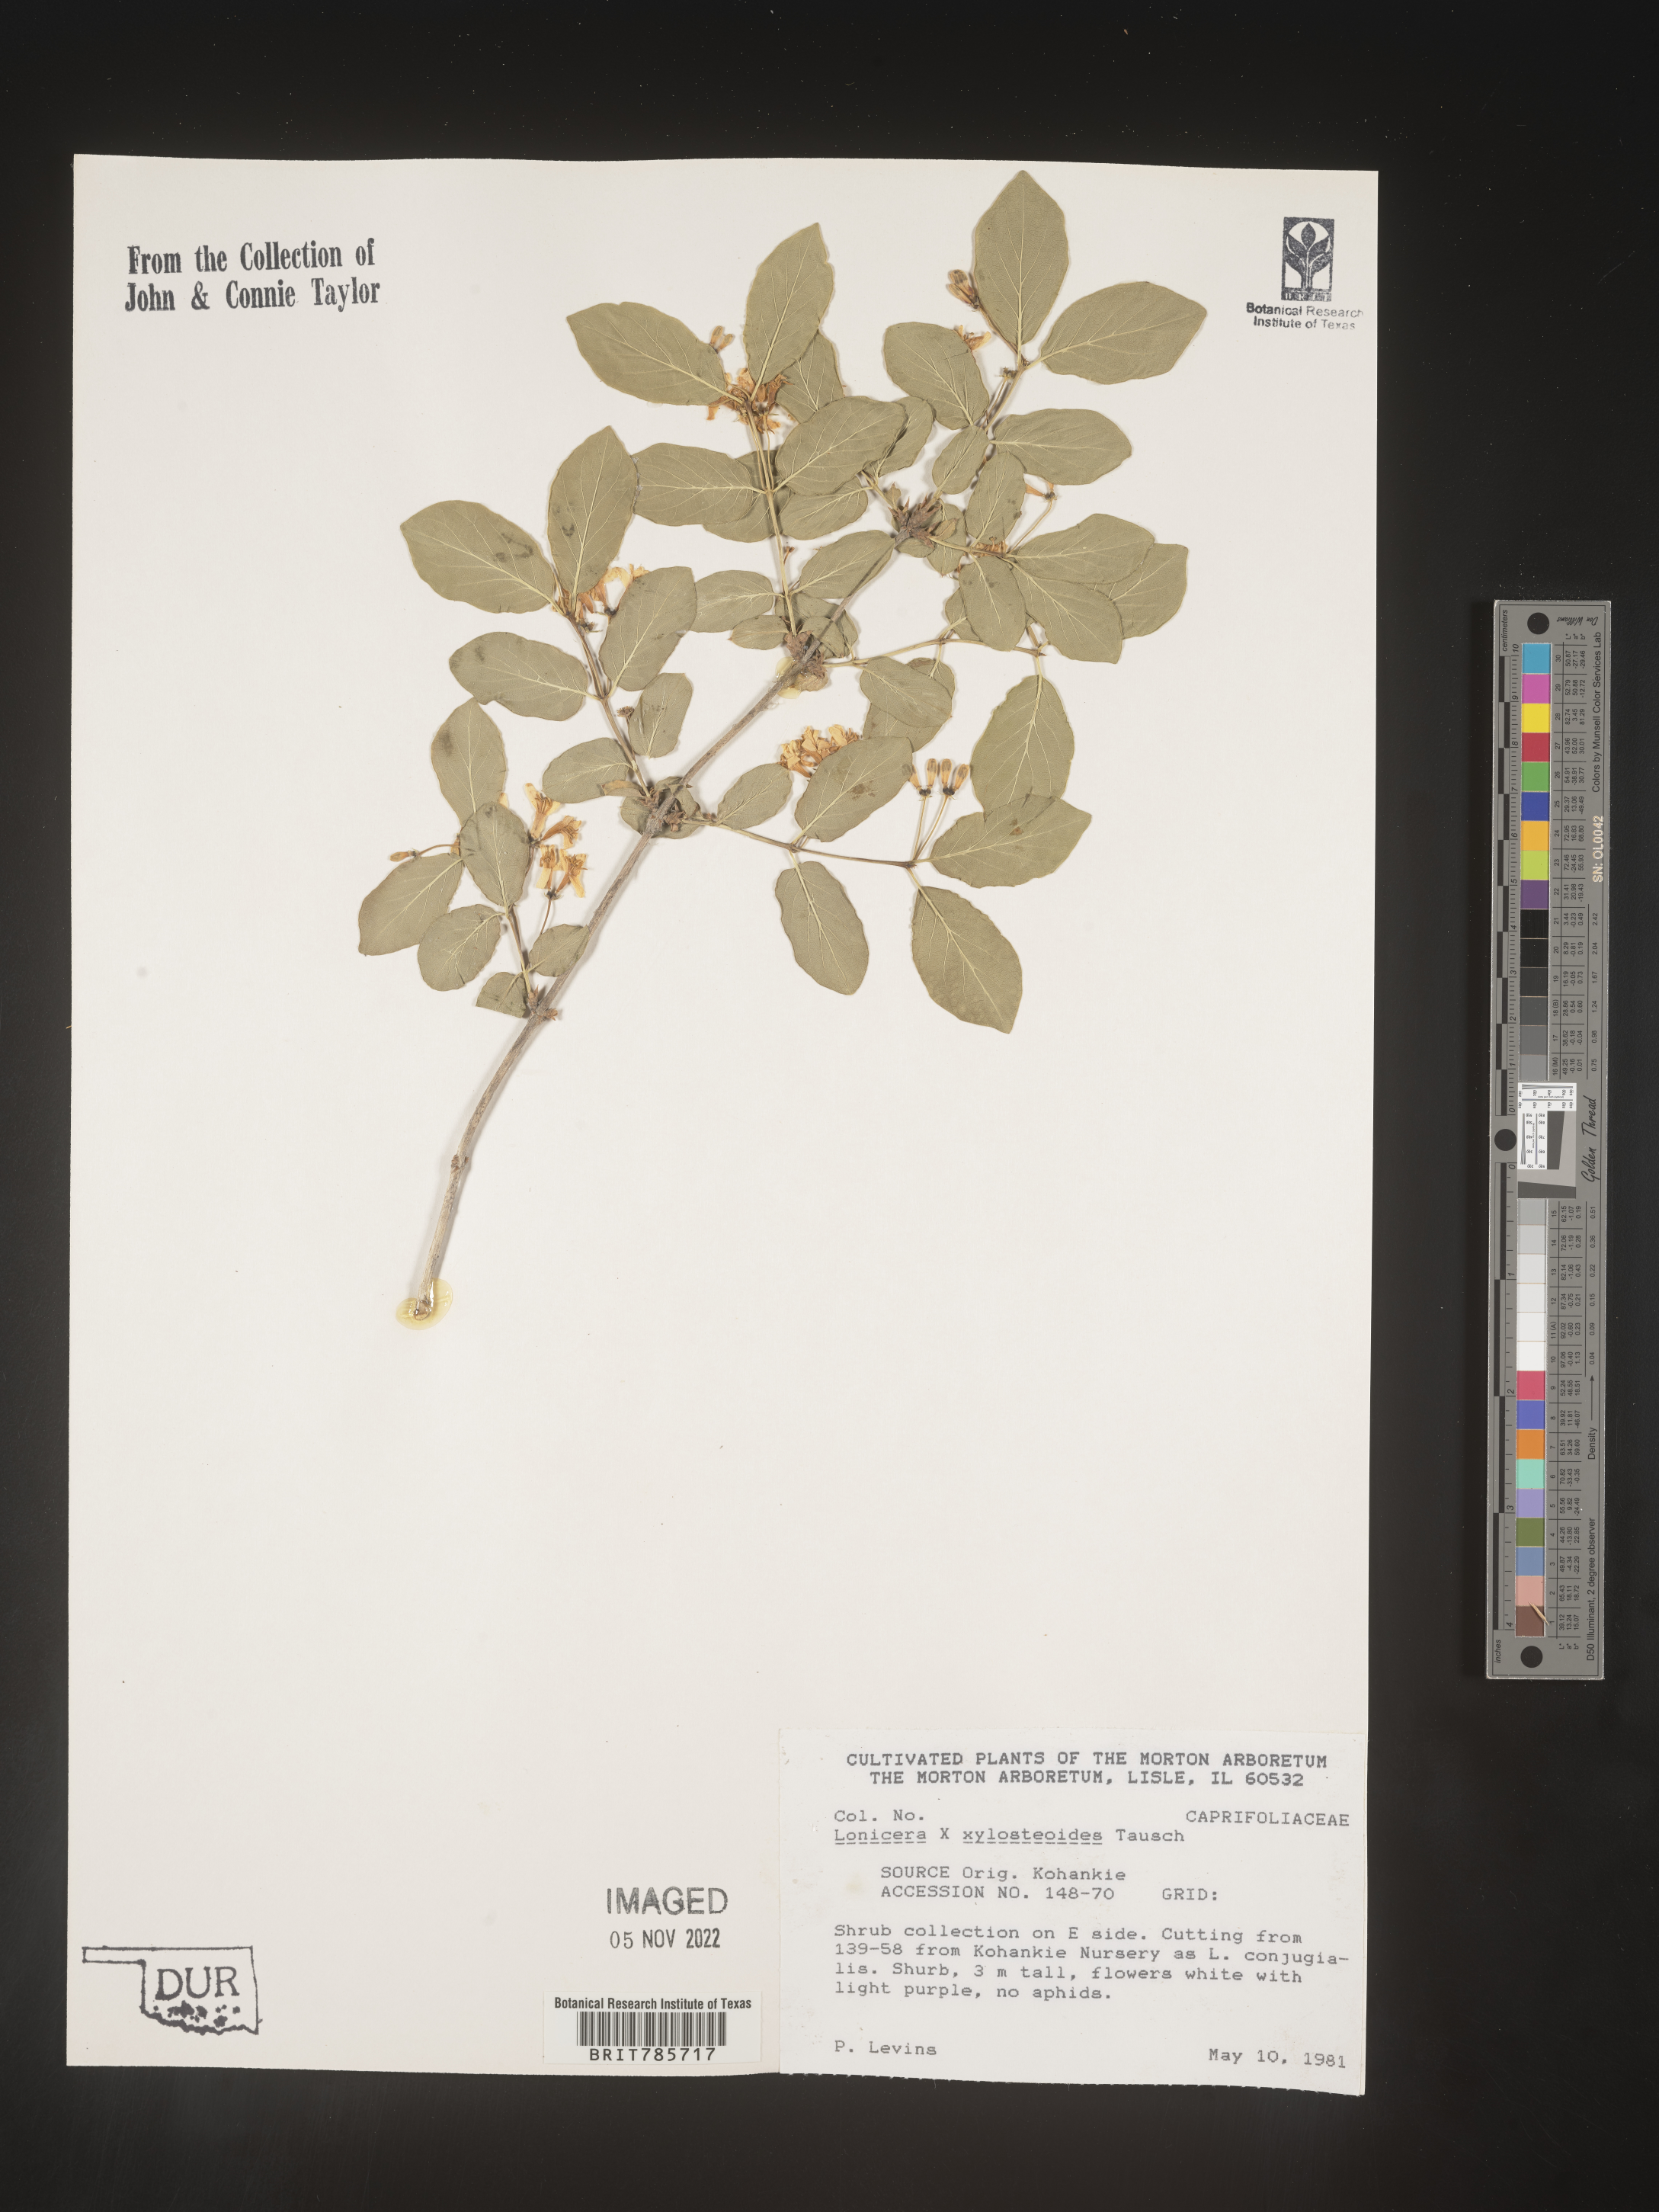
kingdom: Plantae
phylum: Tracheophyta
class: Magnoliopsida
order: Dipsacales
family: Caprifoliaceae
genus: Lonicera
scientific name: Lonicera
